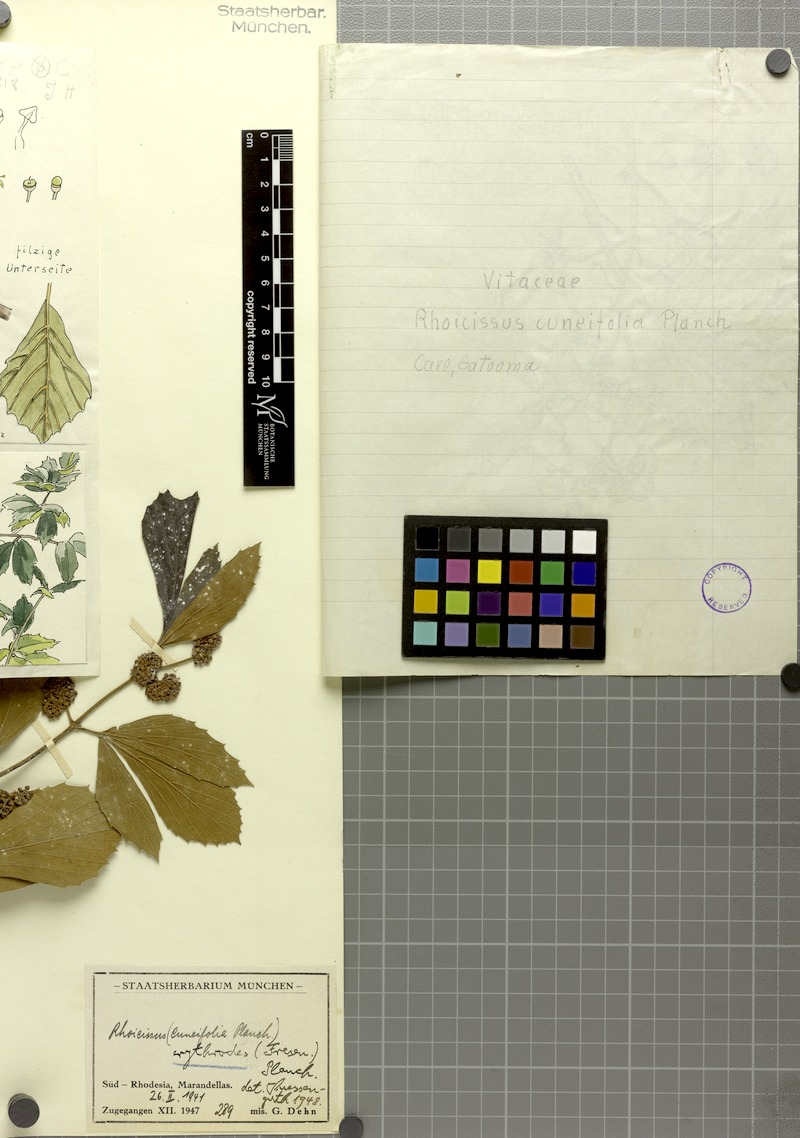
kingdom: Plantae
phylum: Tracheophyta
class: Magnoliopsida
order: Vitales
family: Vitaceae
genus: Rhoicissus
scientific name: Rhoicissus tridentata
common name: Common forest grape
